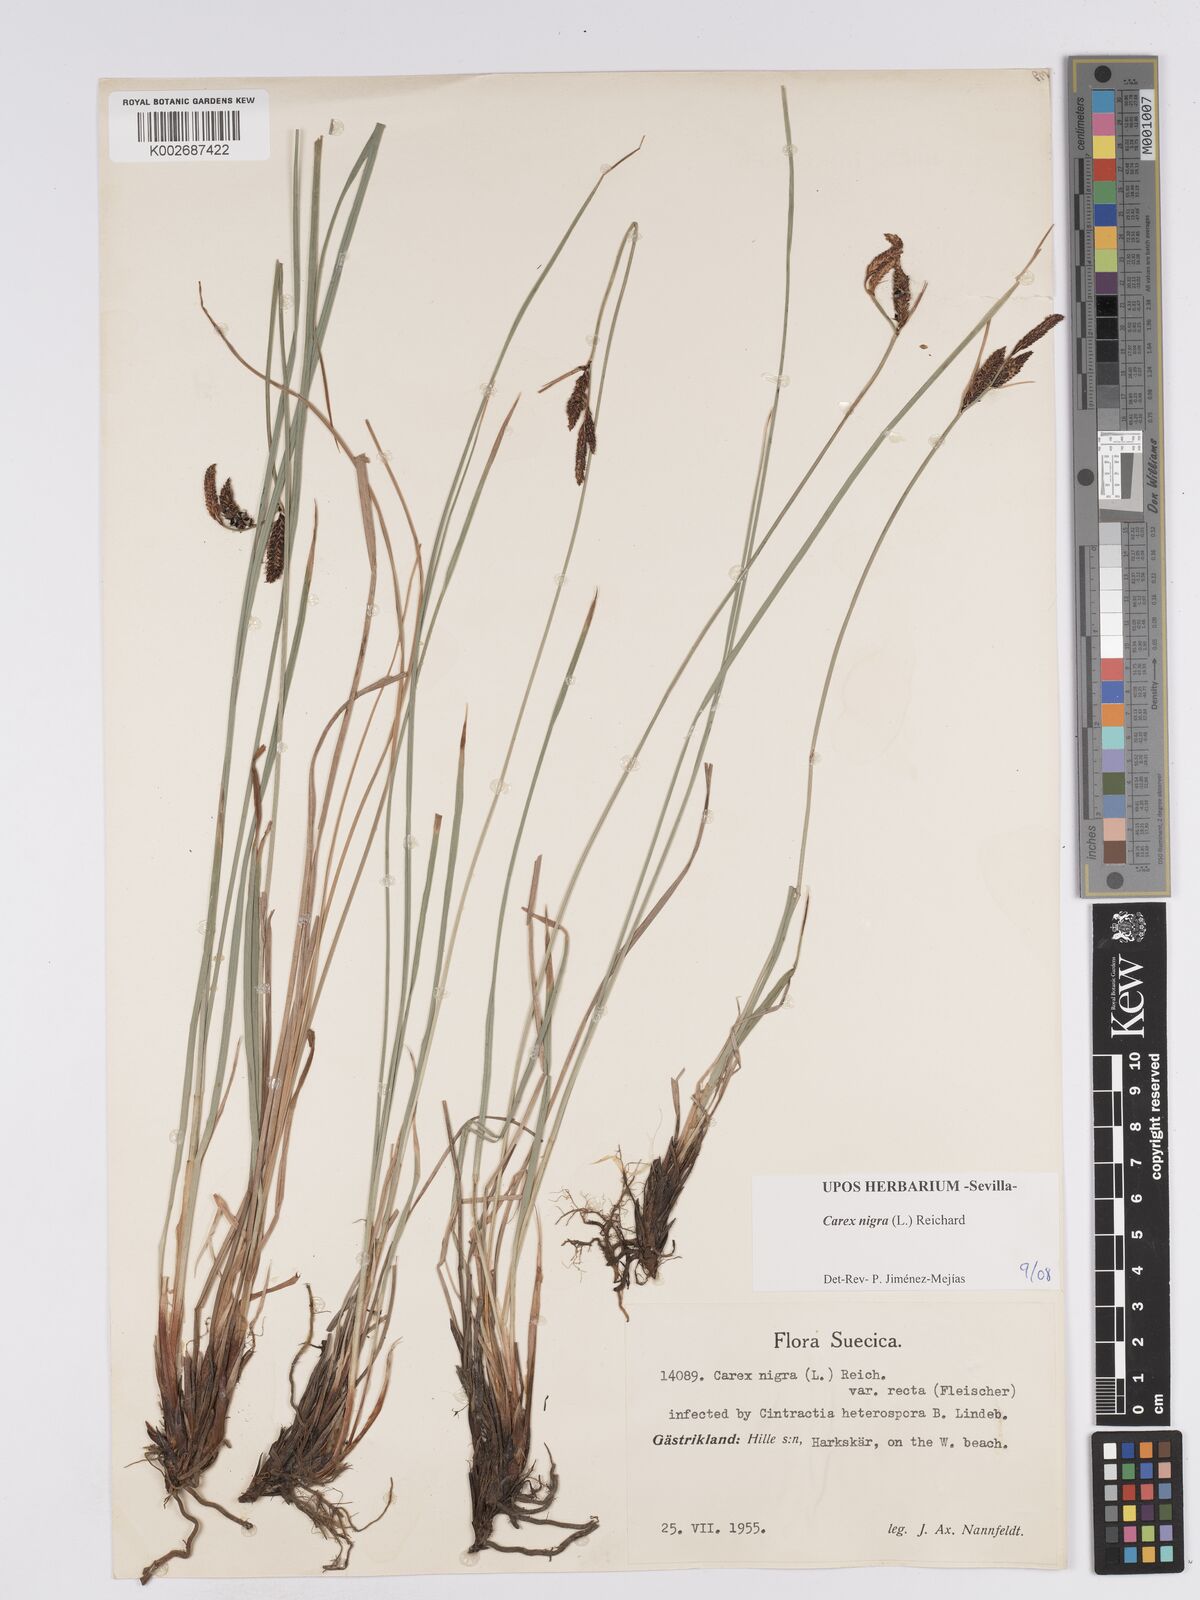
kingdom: Plantae
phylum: Tracheophyta
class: Liliopsida
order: Poales
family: Cyperaceae
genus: Carex
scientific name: Carex nigra
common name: Common sedge
